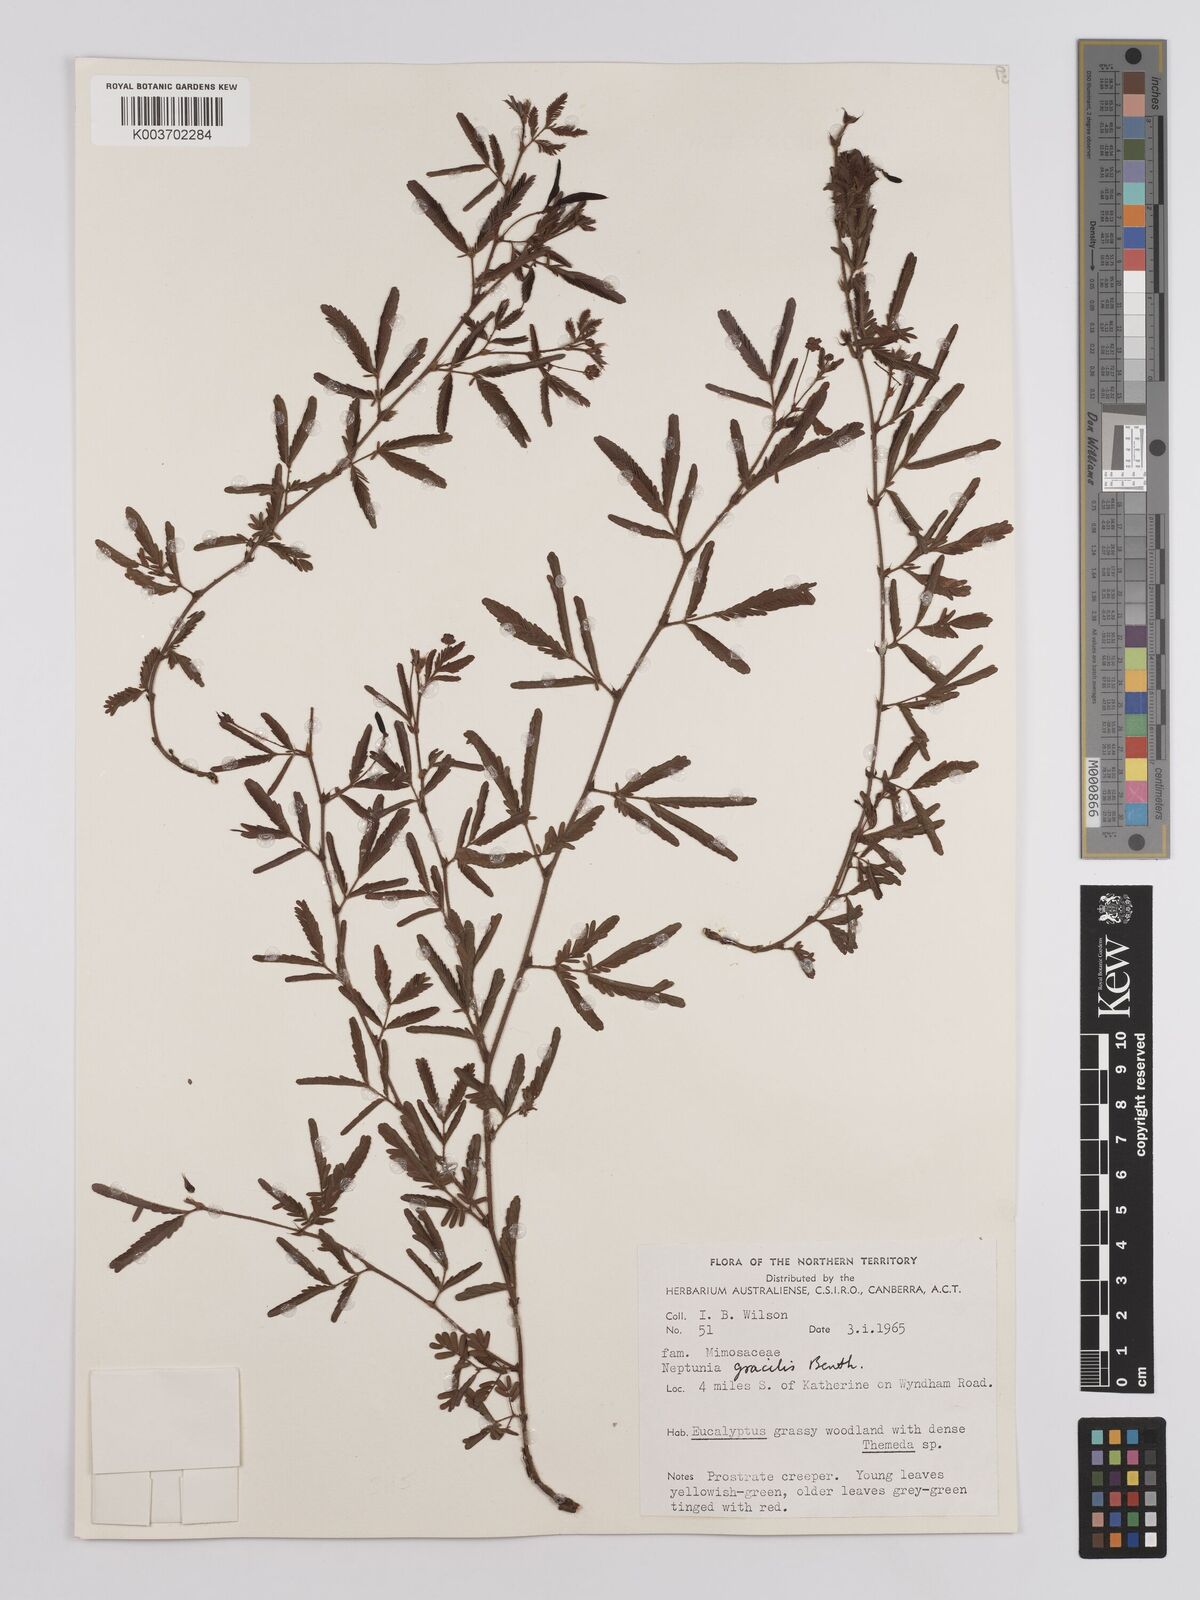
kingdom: Plantae
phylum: Tracheophyta
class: Magnoliopsida
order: Fabales
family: Fabaceae
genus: Neptunia
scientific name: Neptunia gracilis
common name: Sensitive-plant
